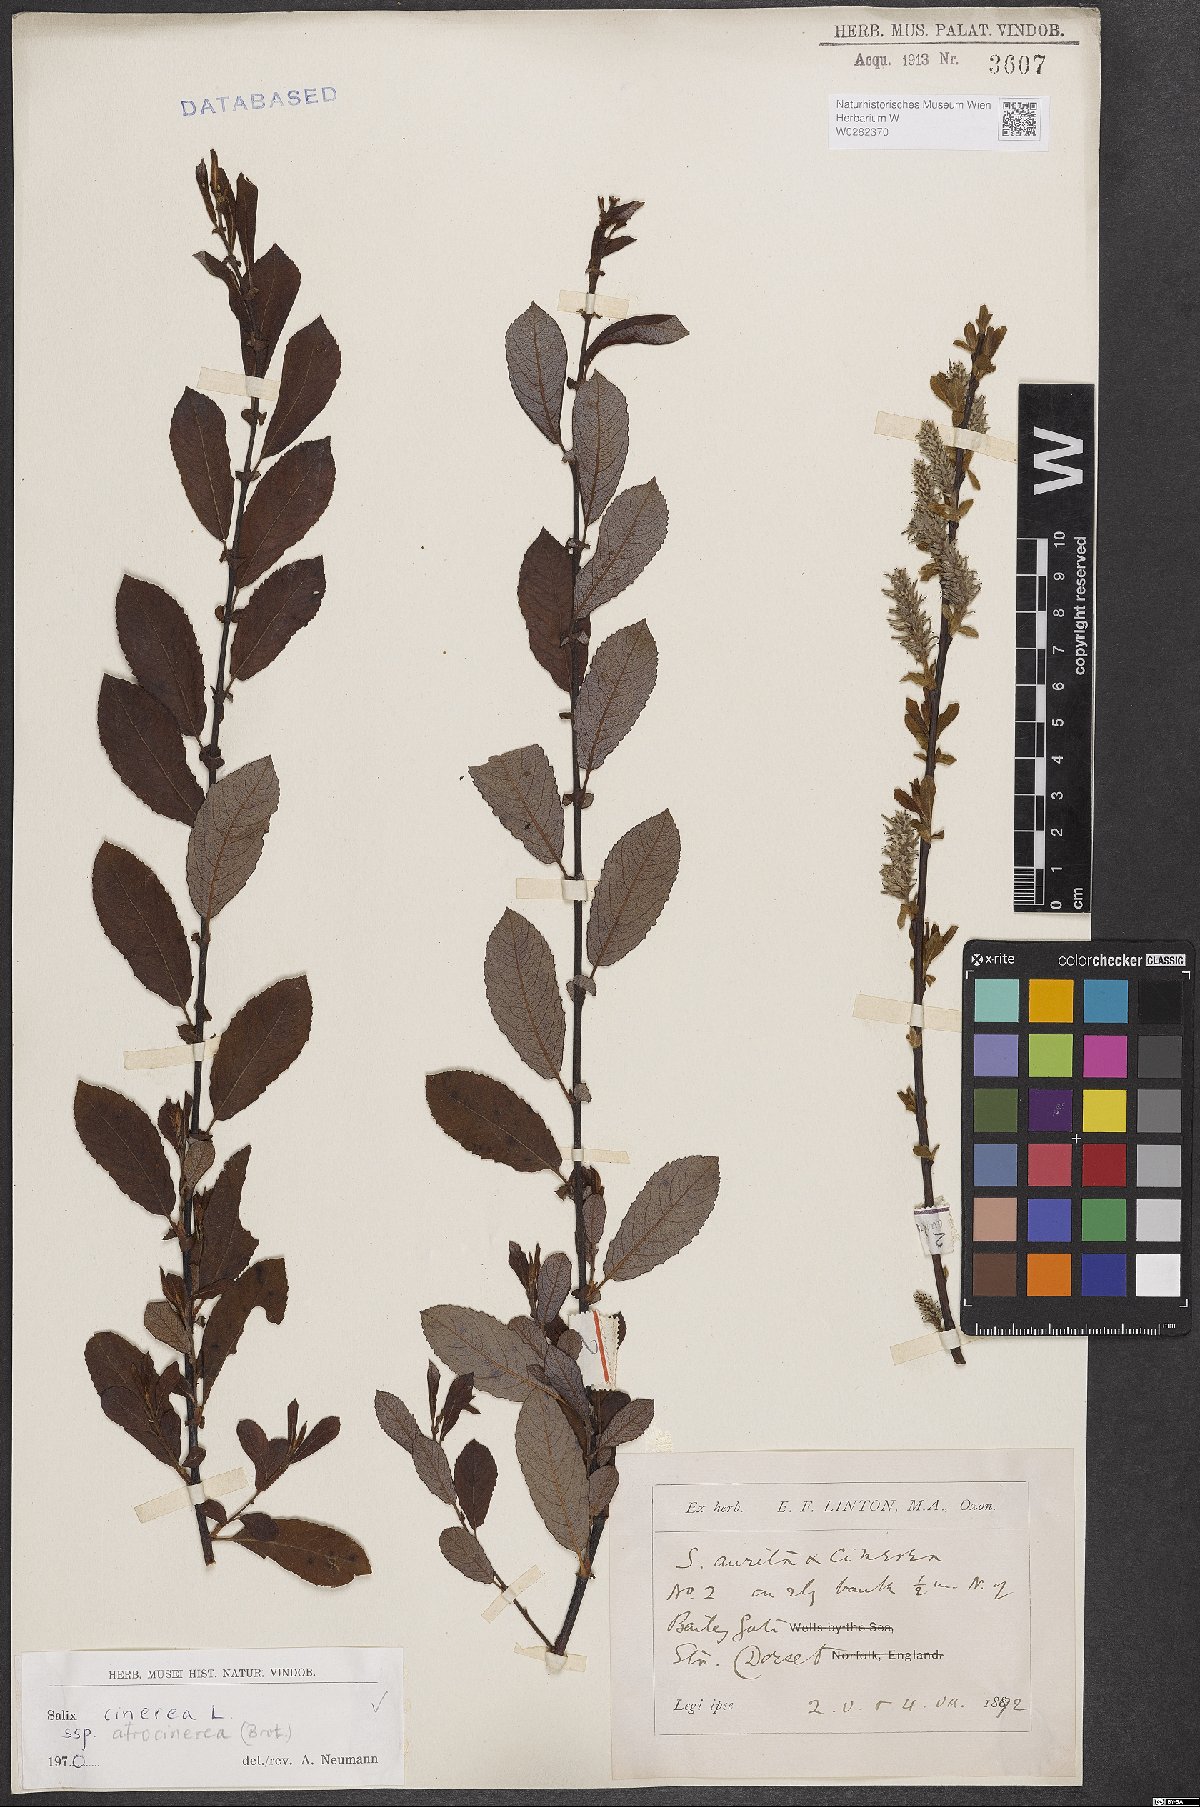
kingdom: Plantae
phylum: Tracheophyta
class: Magnoliopsida
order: Malpighiales
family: Salicaceae
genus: Salix
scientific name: Salix atrocinerea
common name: Rusty willow
